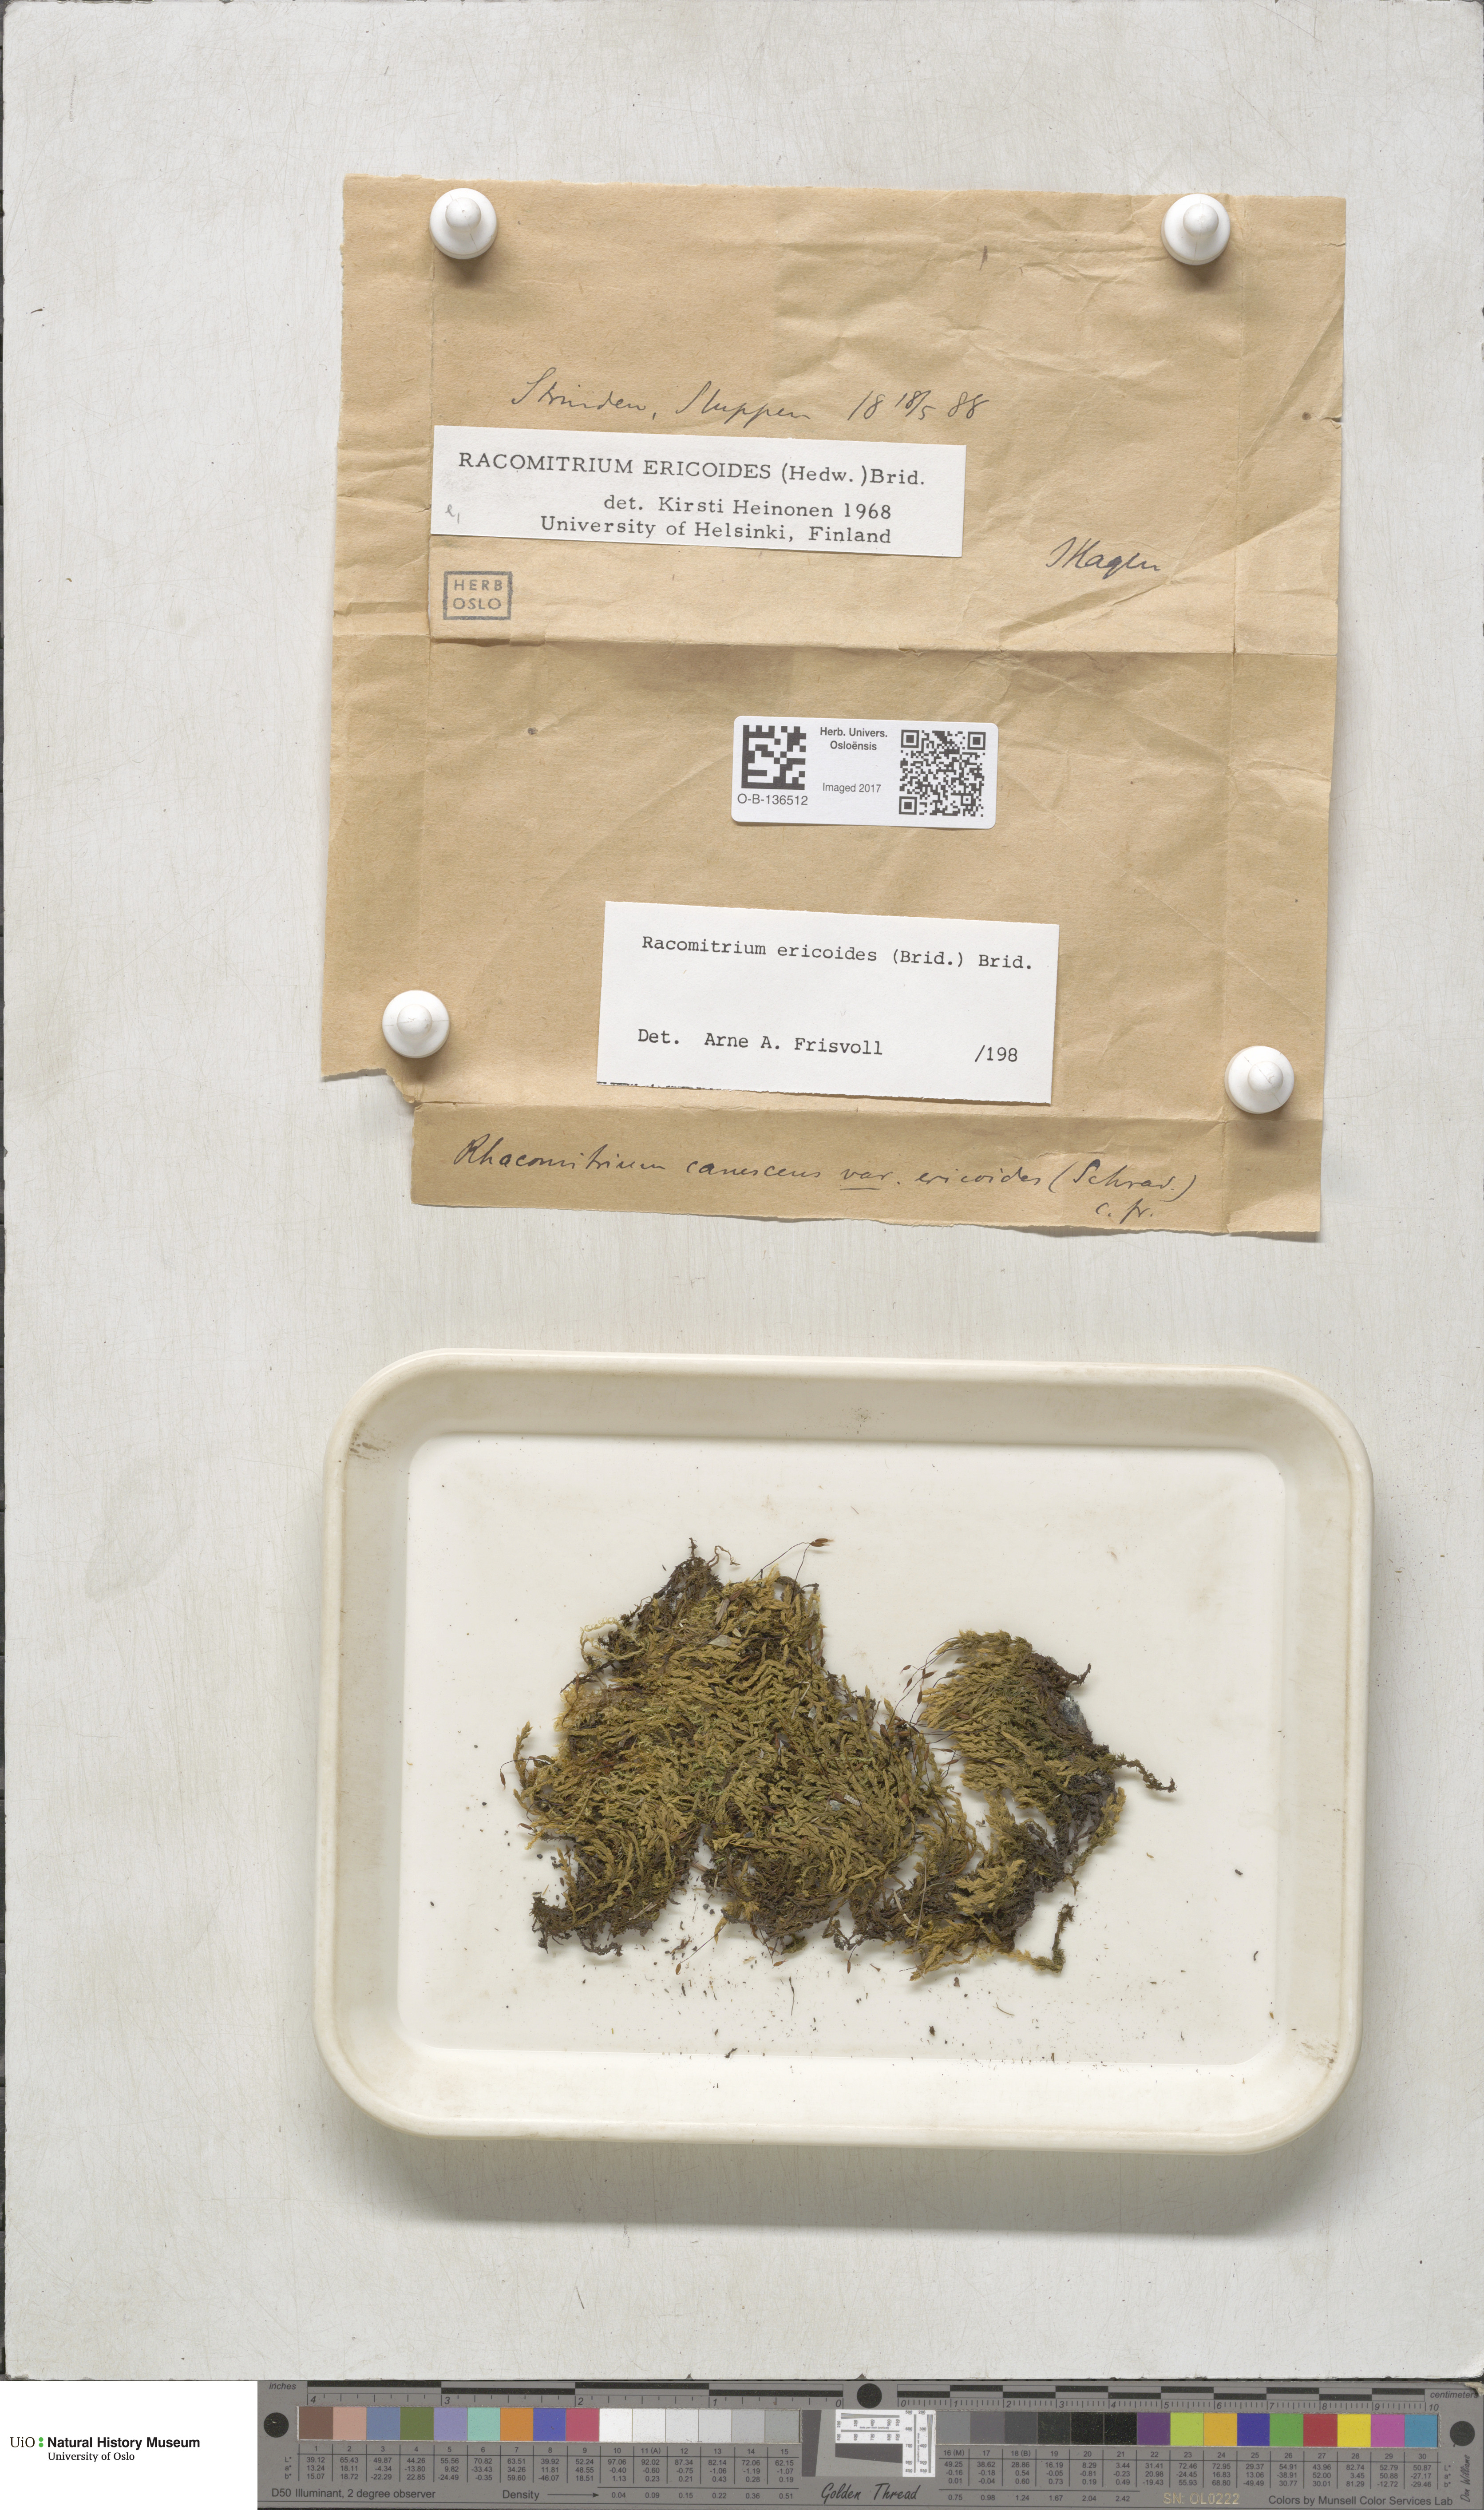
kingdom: Plantae
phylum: Bryophyta
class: Bryopsida
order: Grimmiales
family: Grimmiaceae
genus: Niphotrichum
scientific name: Niphotrichum ericoides
